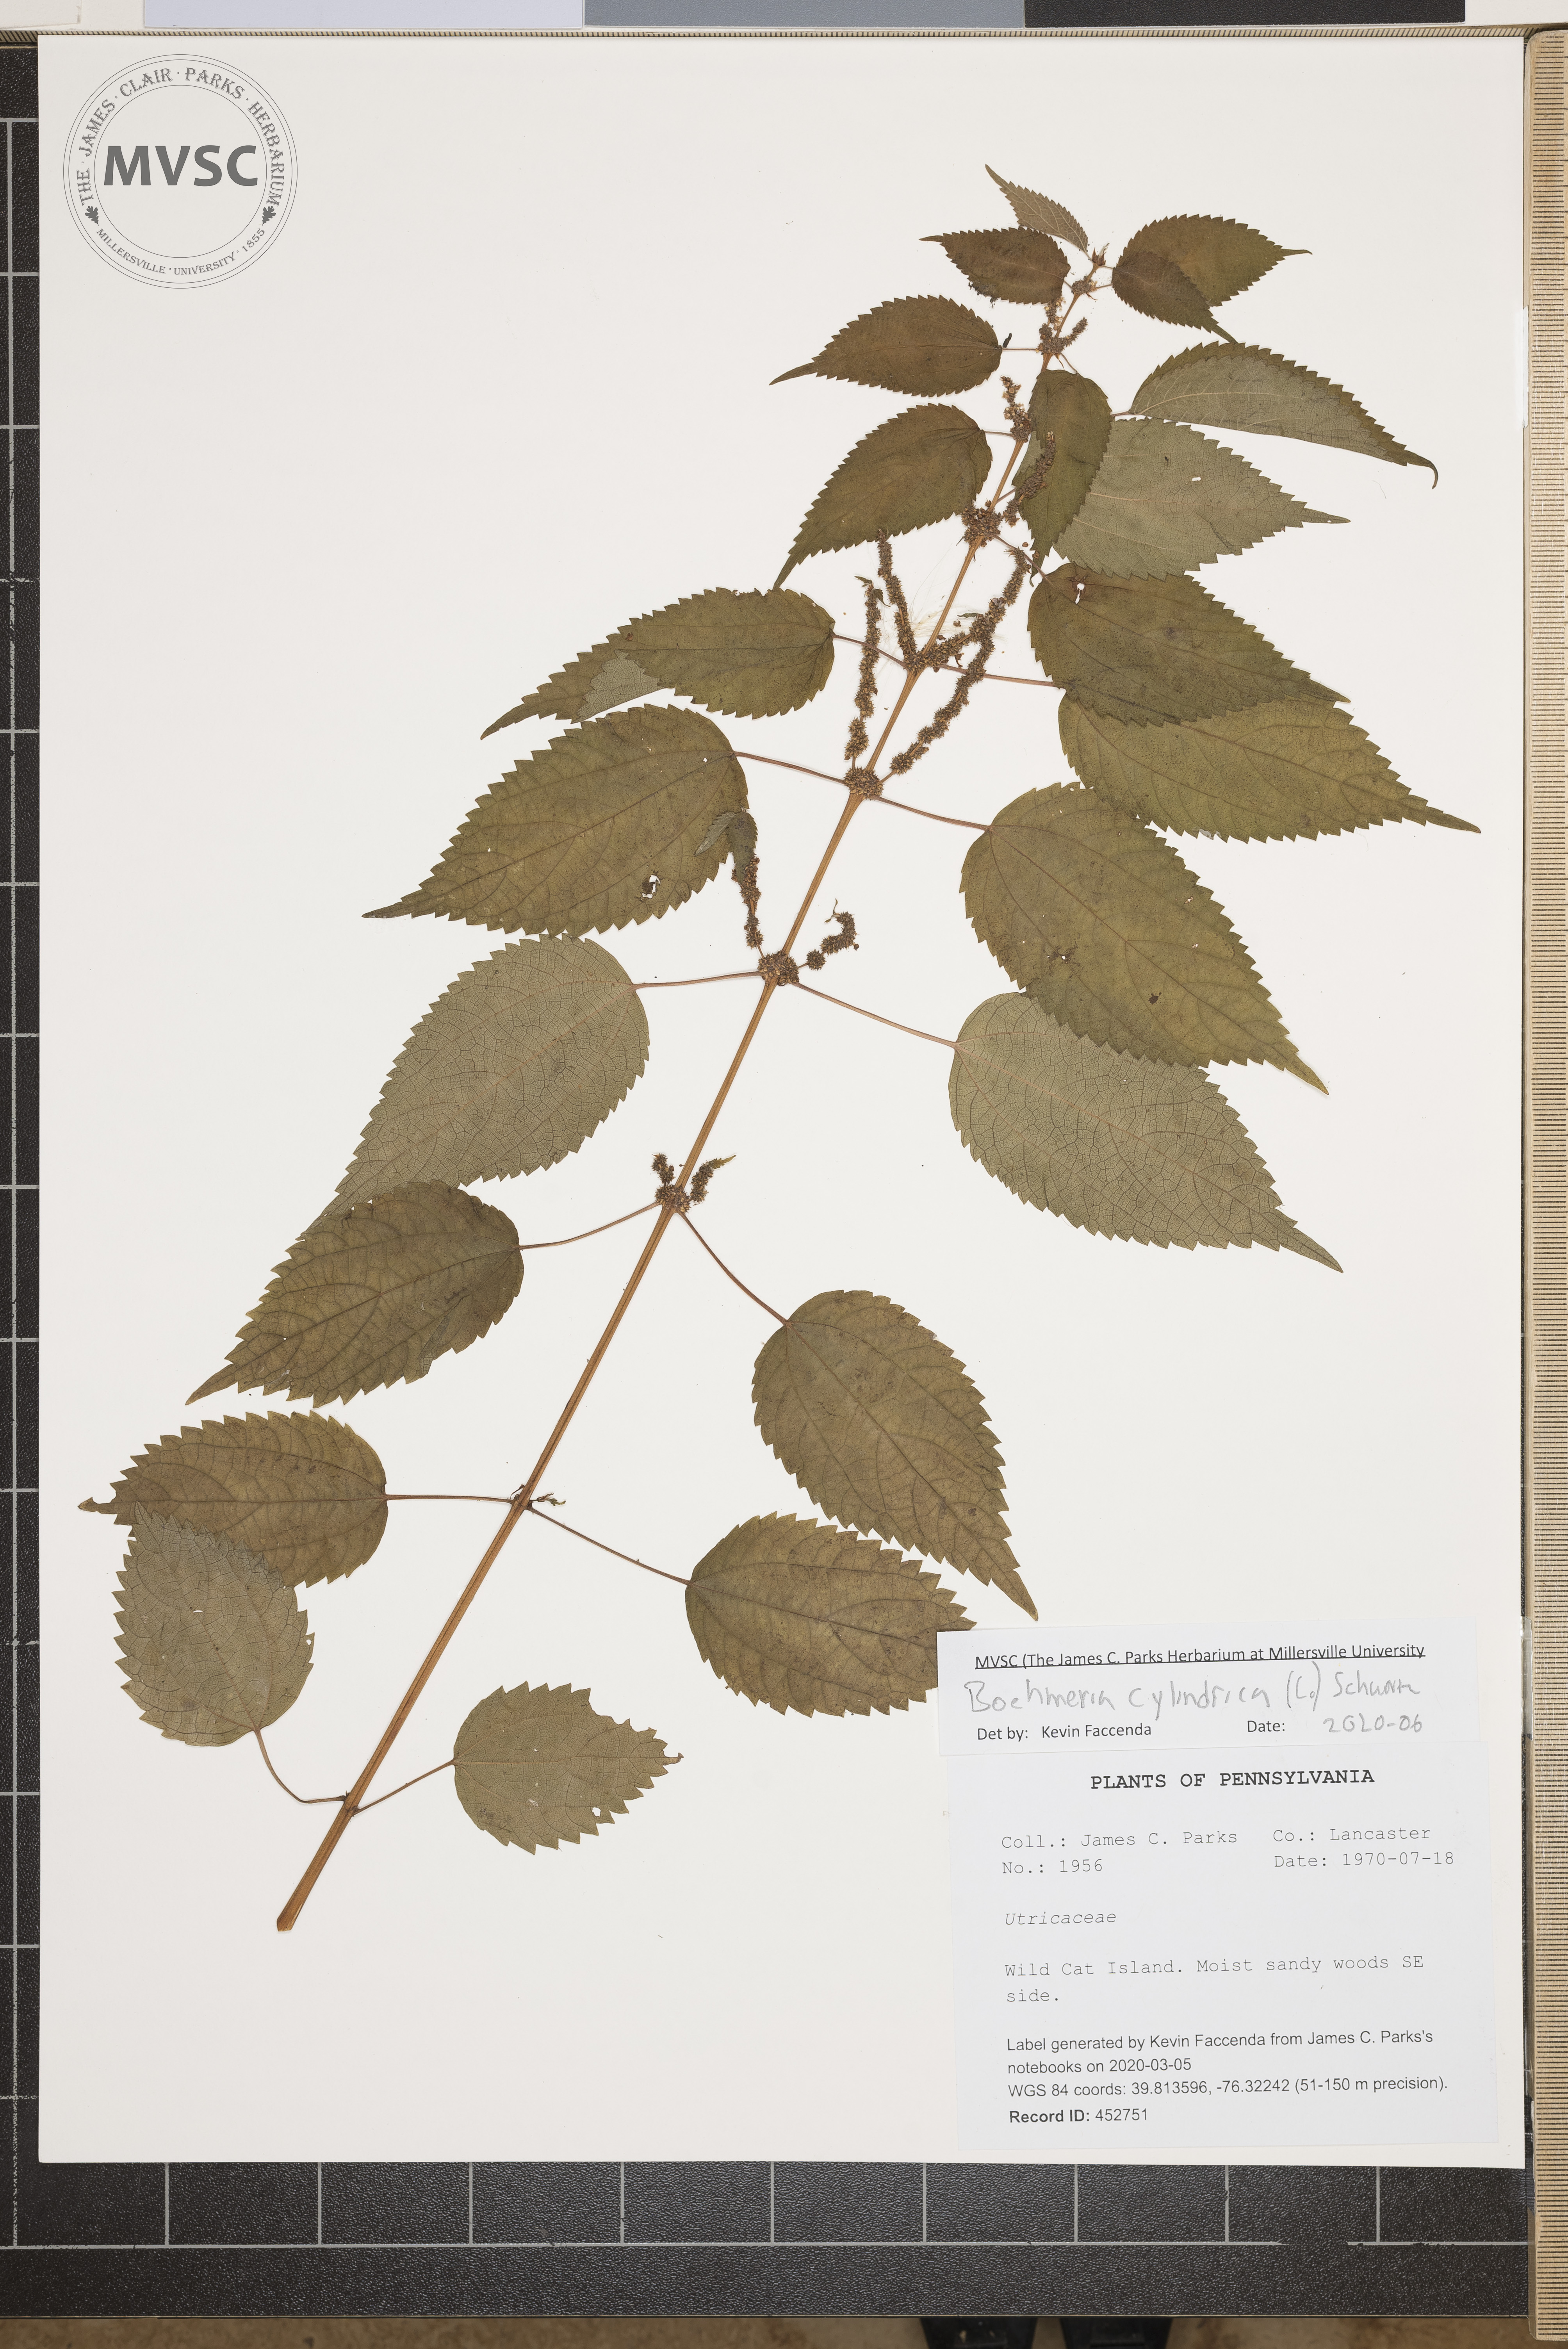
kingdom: Plantae
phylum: Tracheophyta
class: Magnoliopsida
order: Rosales
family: Urticaceae
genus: Boehmeria
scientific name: Boehmeria cylindrica
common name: Bog-hemp
